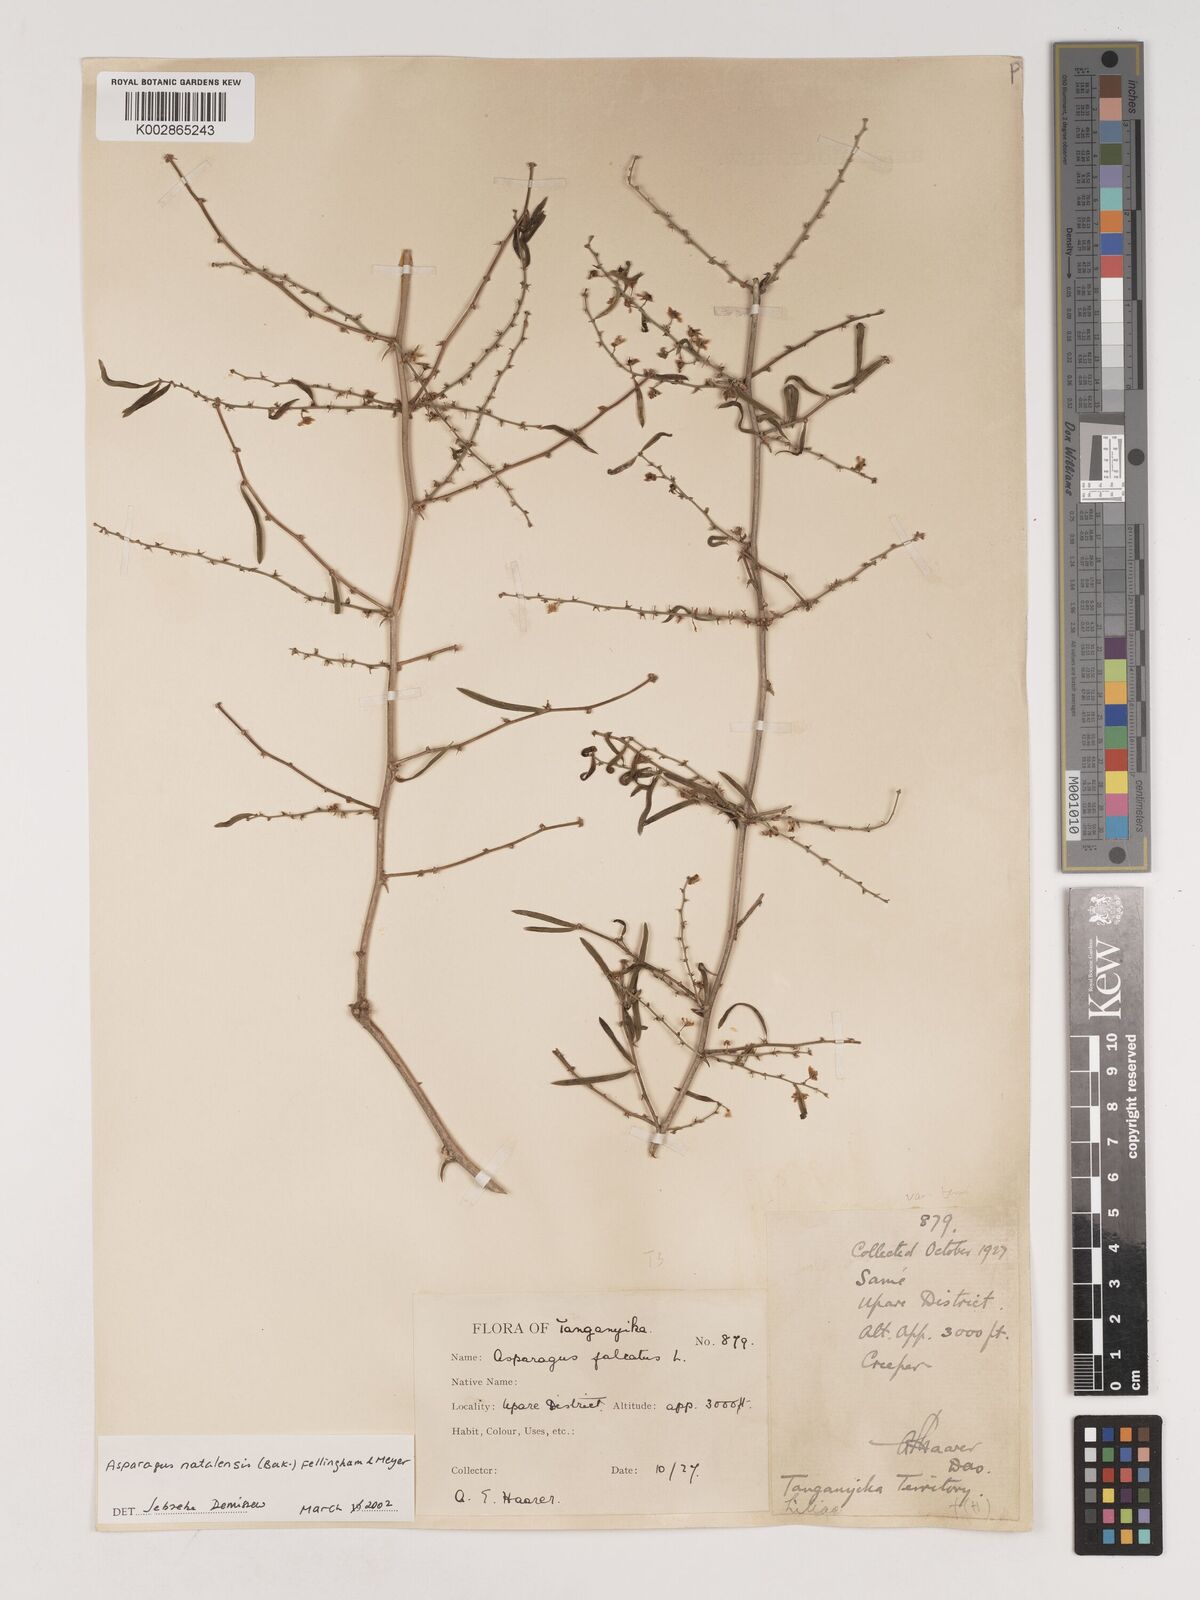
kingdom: Plantae
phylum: Tracheophyta
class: Liliopsida
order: Asparagales
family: Asparagaceae
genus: Asparagus
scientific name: Asparagus natalensis
